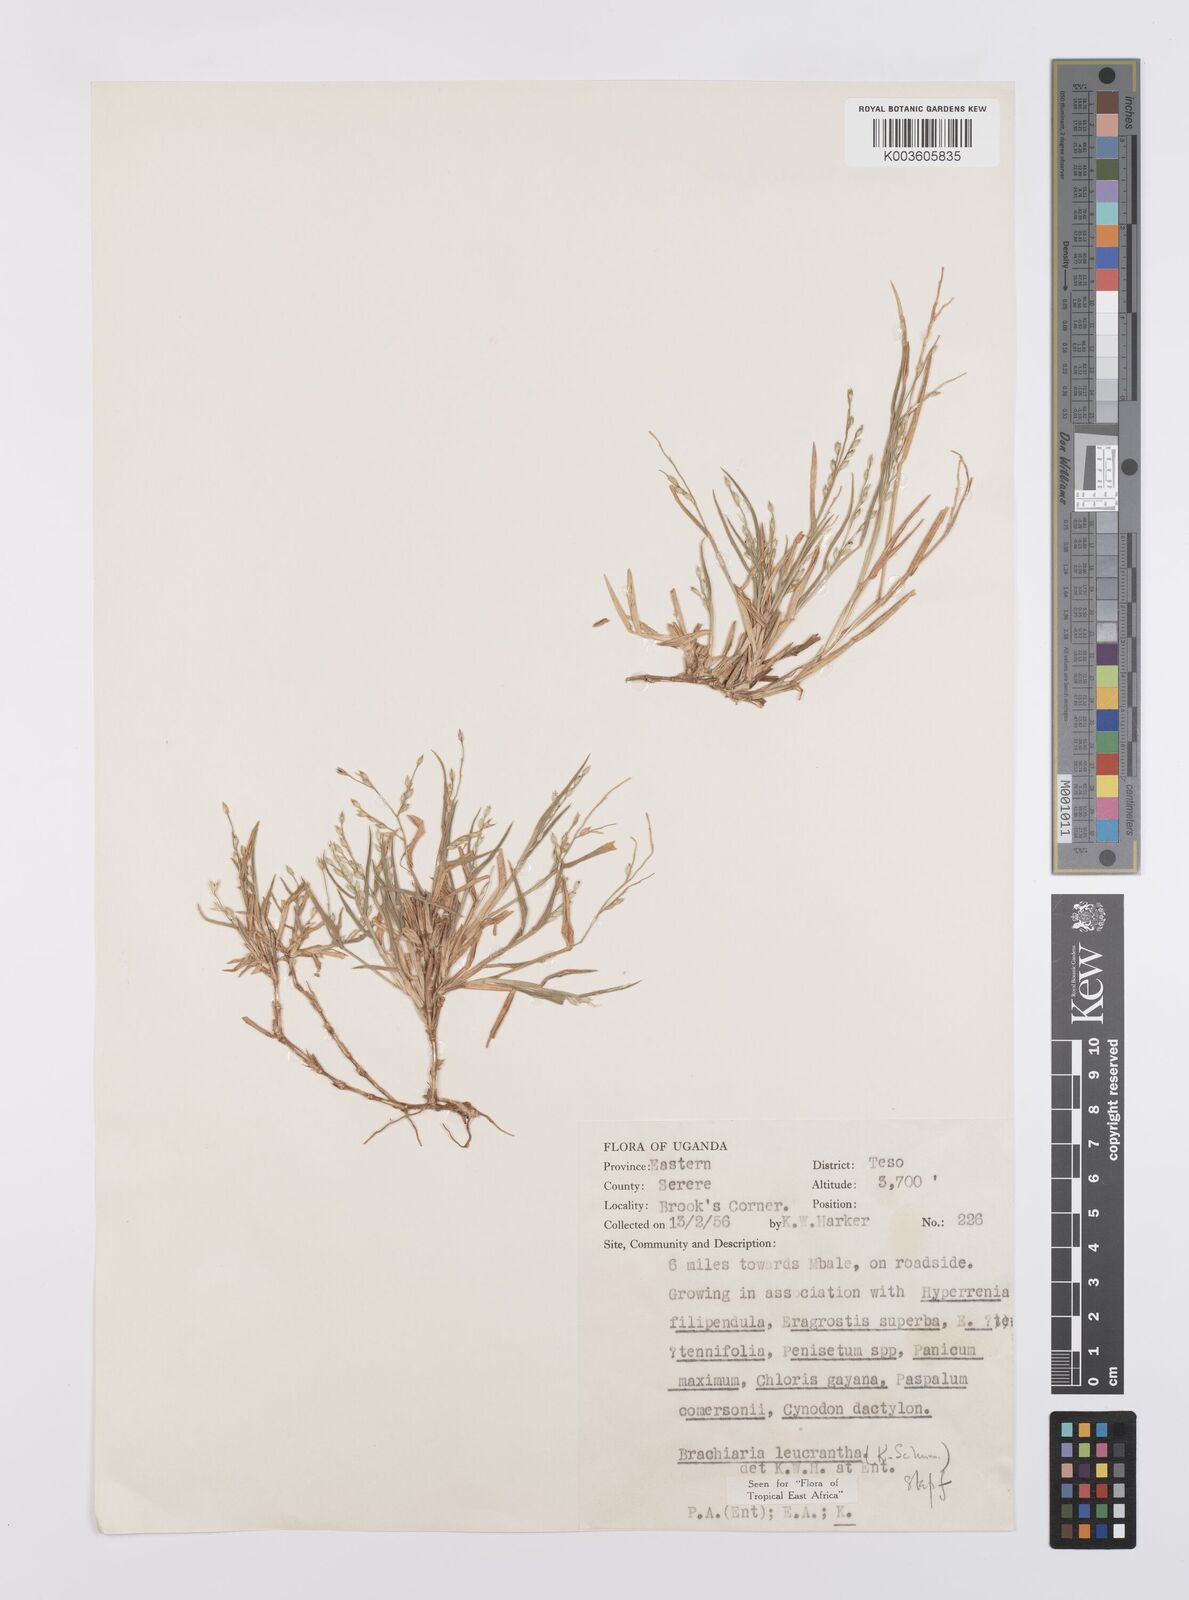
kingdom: Plantae
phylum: Tracheophyta
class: Liliopsida
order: Poales
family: Poaceae
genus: Urochloa
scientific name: Urochloa xantholeuca
